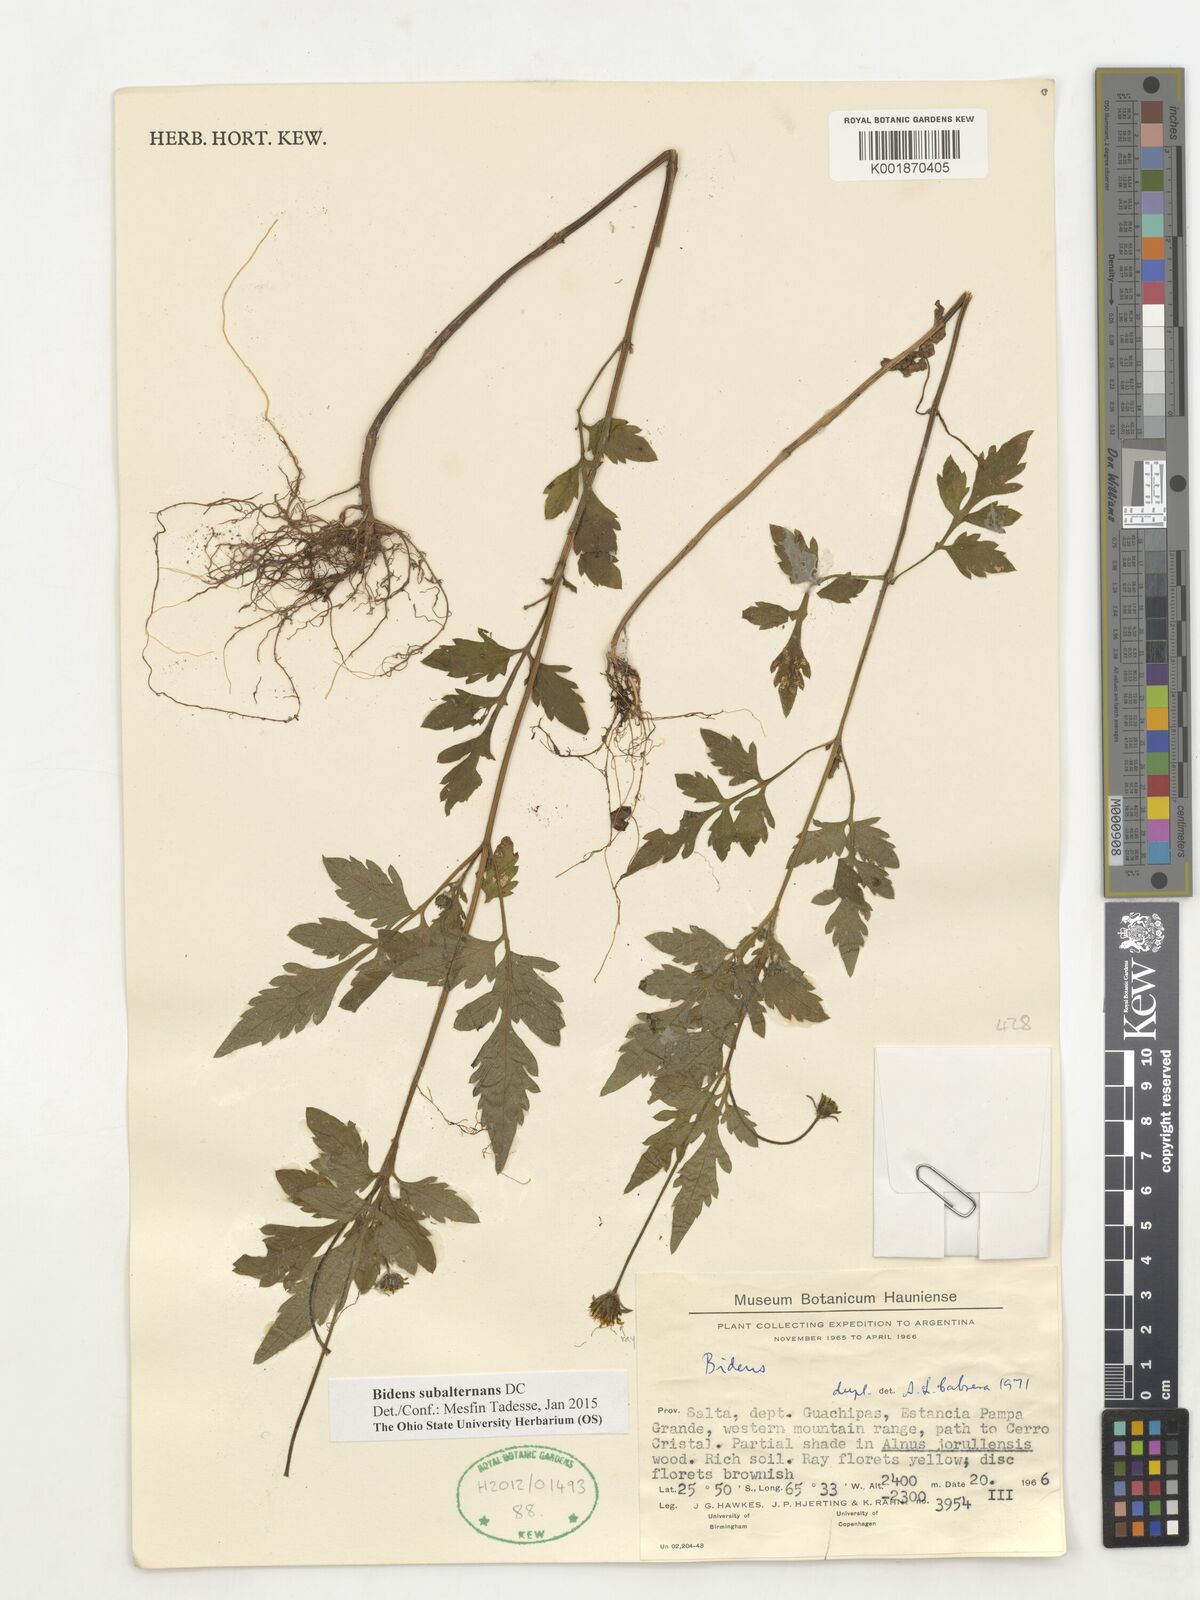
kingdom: Plantae
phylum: Tracheophyta
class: Magnoliopsida
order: Asterales
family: Asteraceae
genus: Bidens
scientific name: Bidens subalternans
